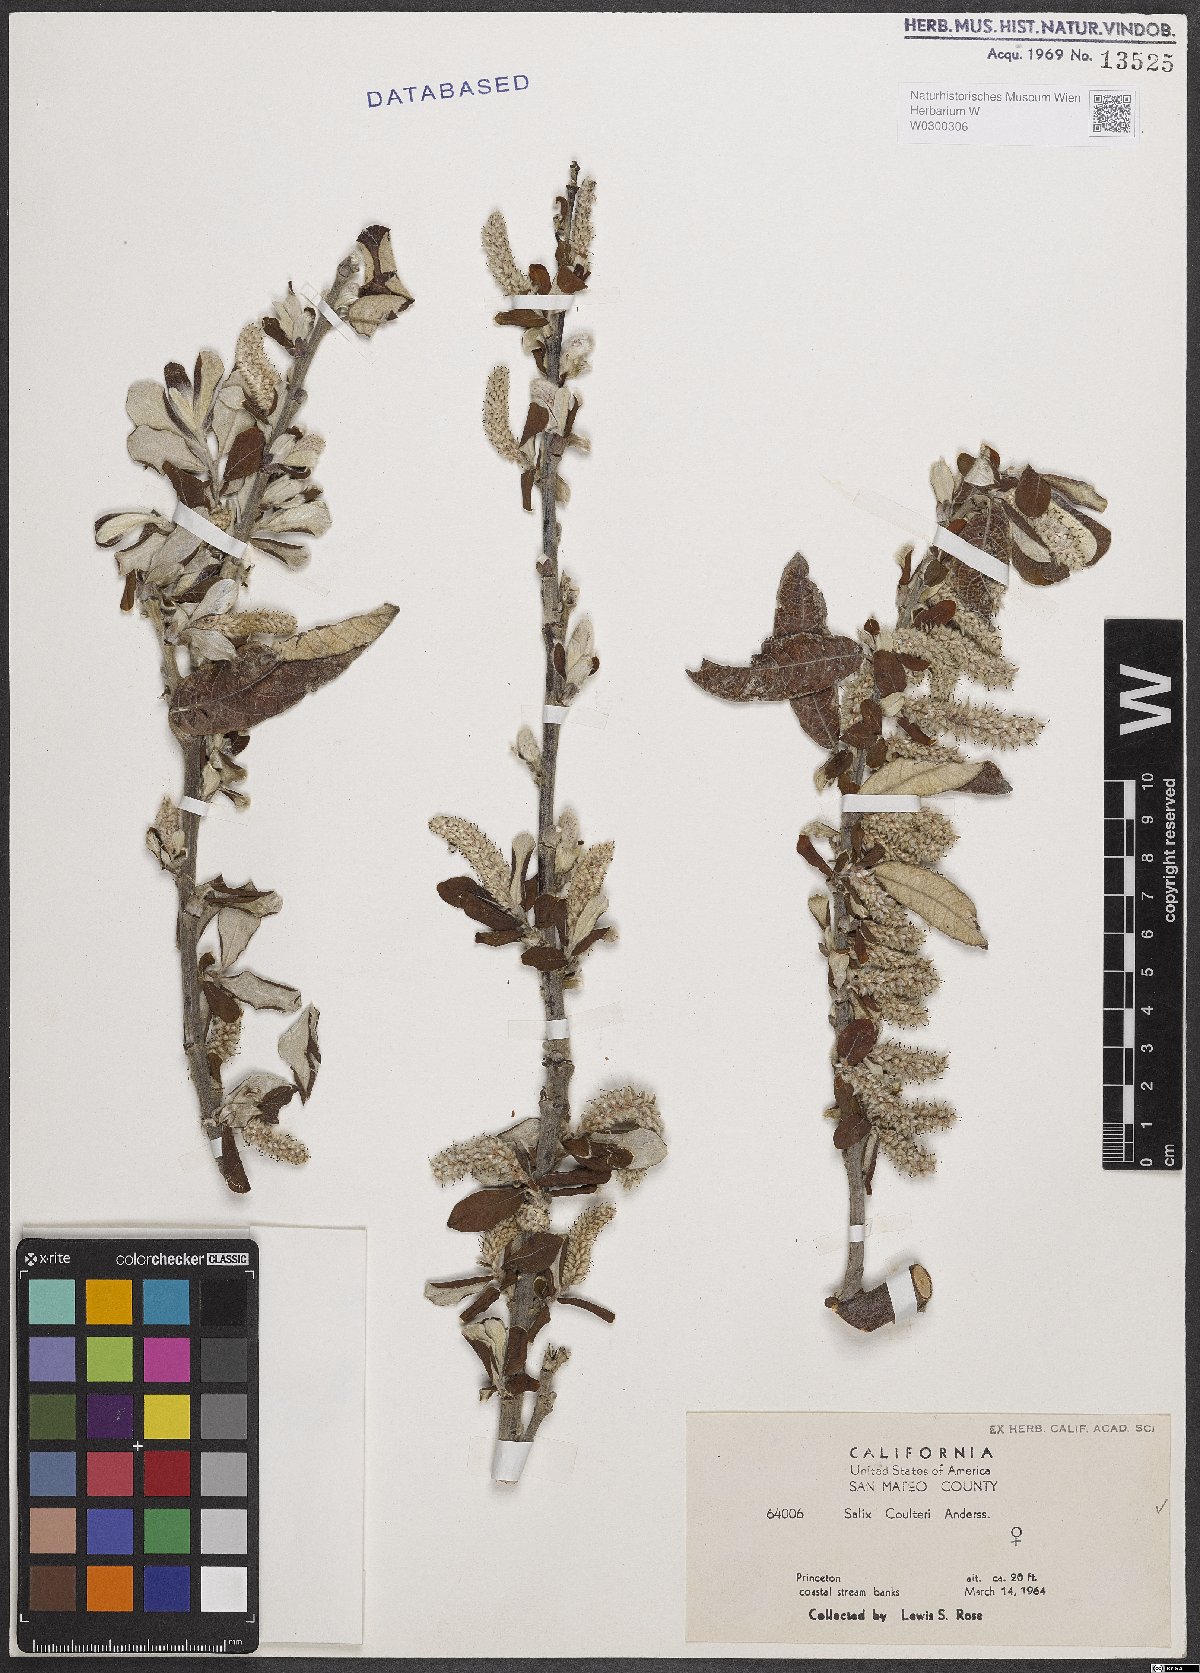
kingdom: Plantae
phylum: Tracheophyta
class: Magnoliopsida
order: Malpighiales
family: Salicaceae
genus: Salix
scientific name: Salix sitchensis
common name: Sitka willow
